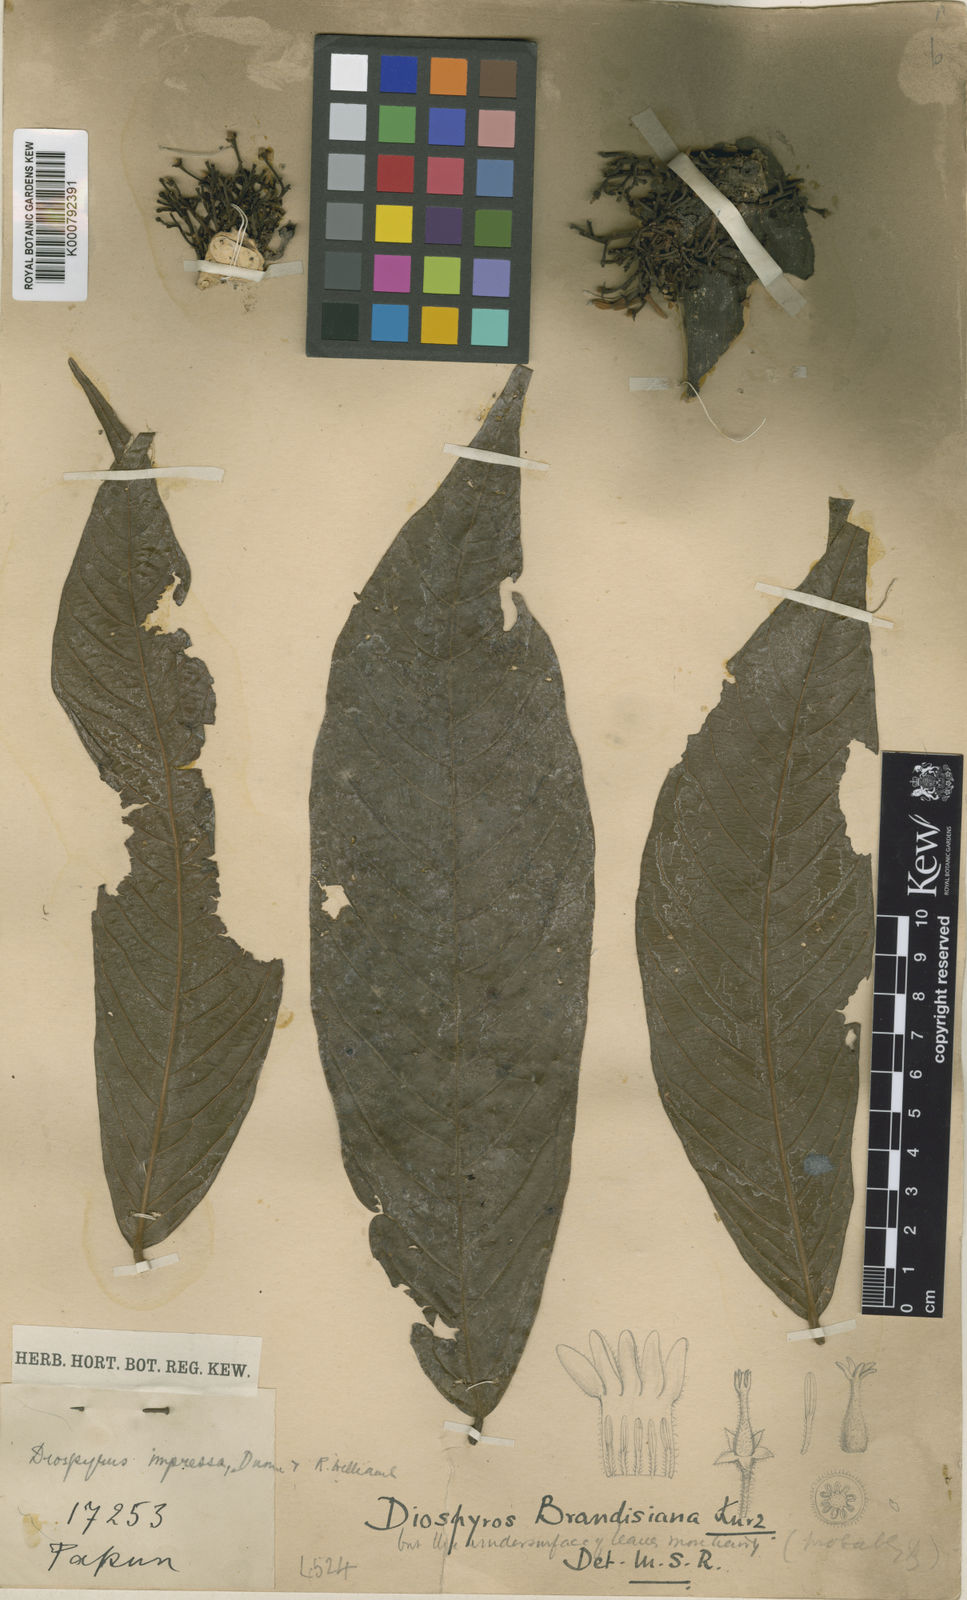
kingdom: Plantae
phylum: Tracheophyta
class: Magnoliopsida
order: Ericales
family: Ebenaceae
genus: Diospyros
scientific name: Diospyros impressa
